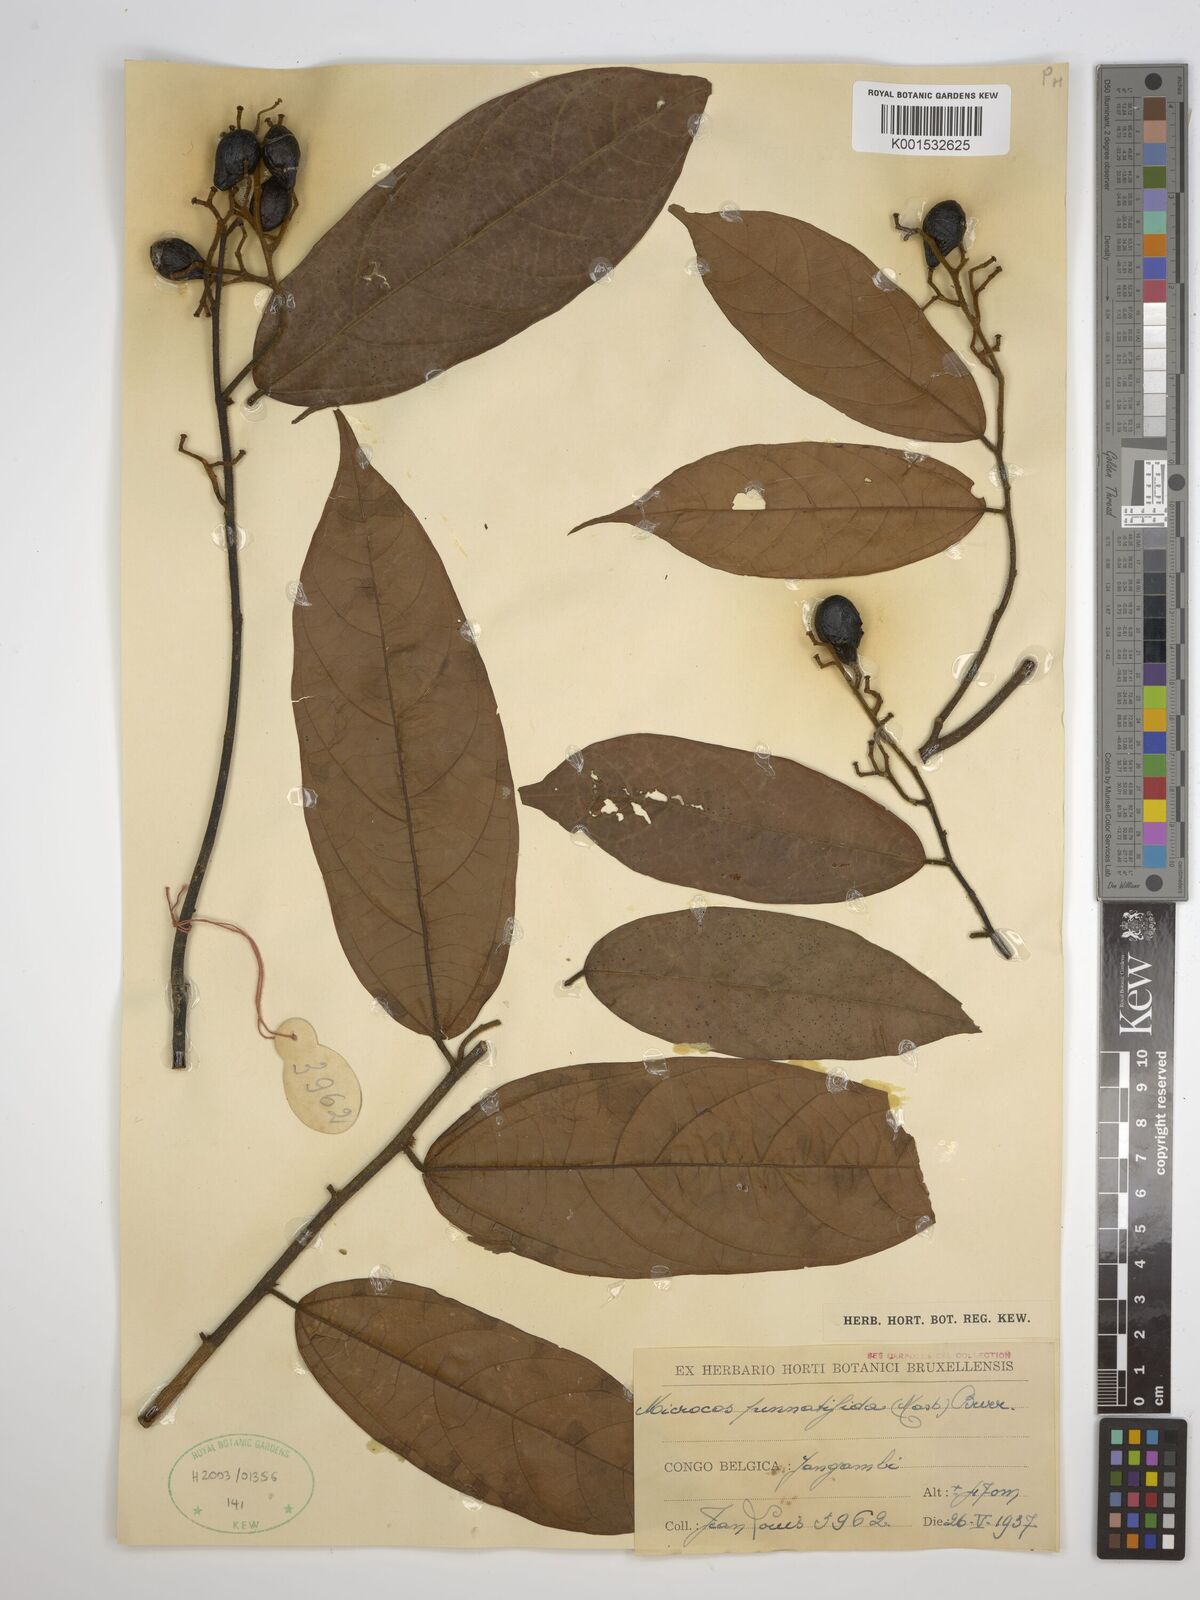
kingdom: Plantae
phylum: Tracheophyta
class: Magnoliopsida
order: Malvales
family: Malvaceae
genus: Microcos
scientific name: Microcos pinnatifida
